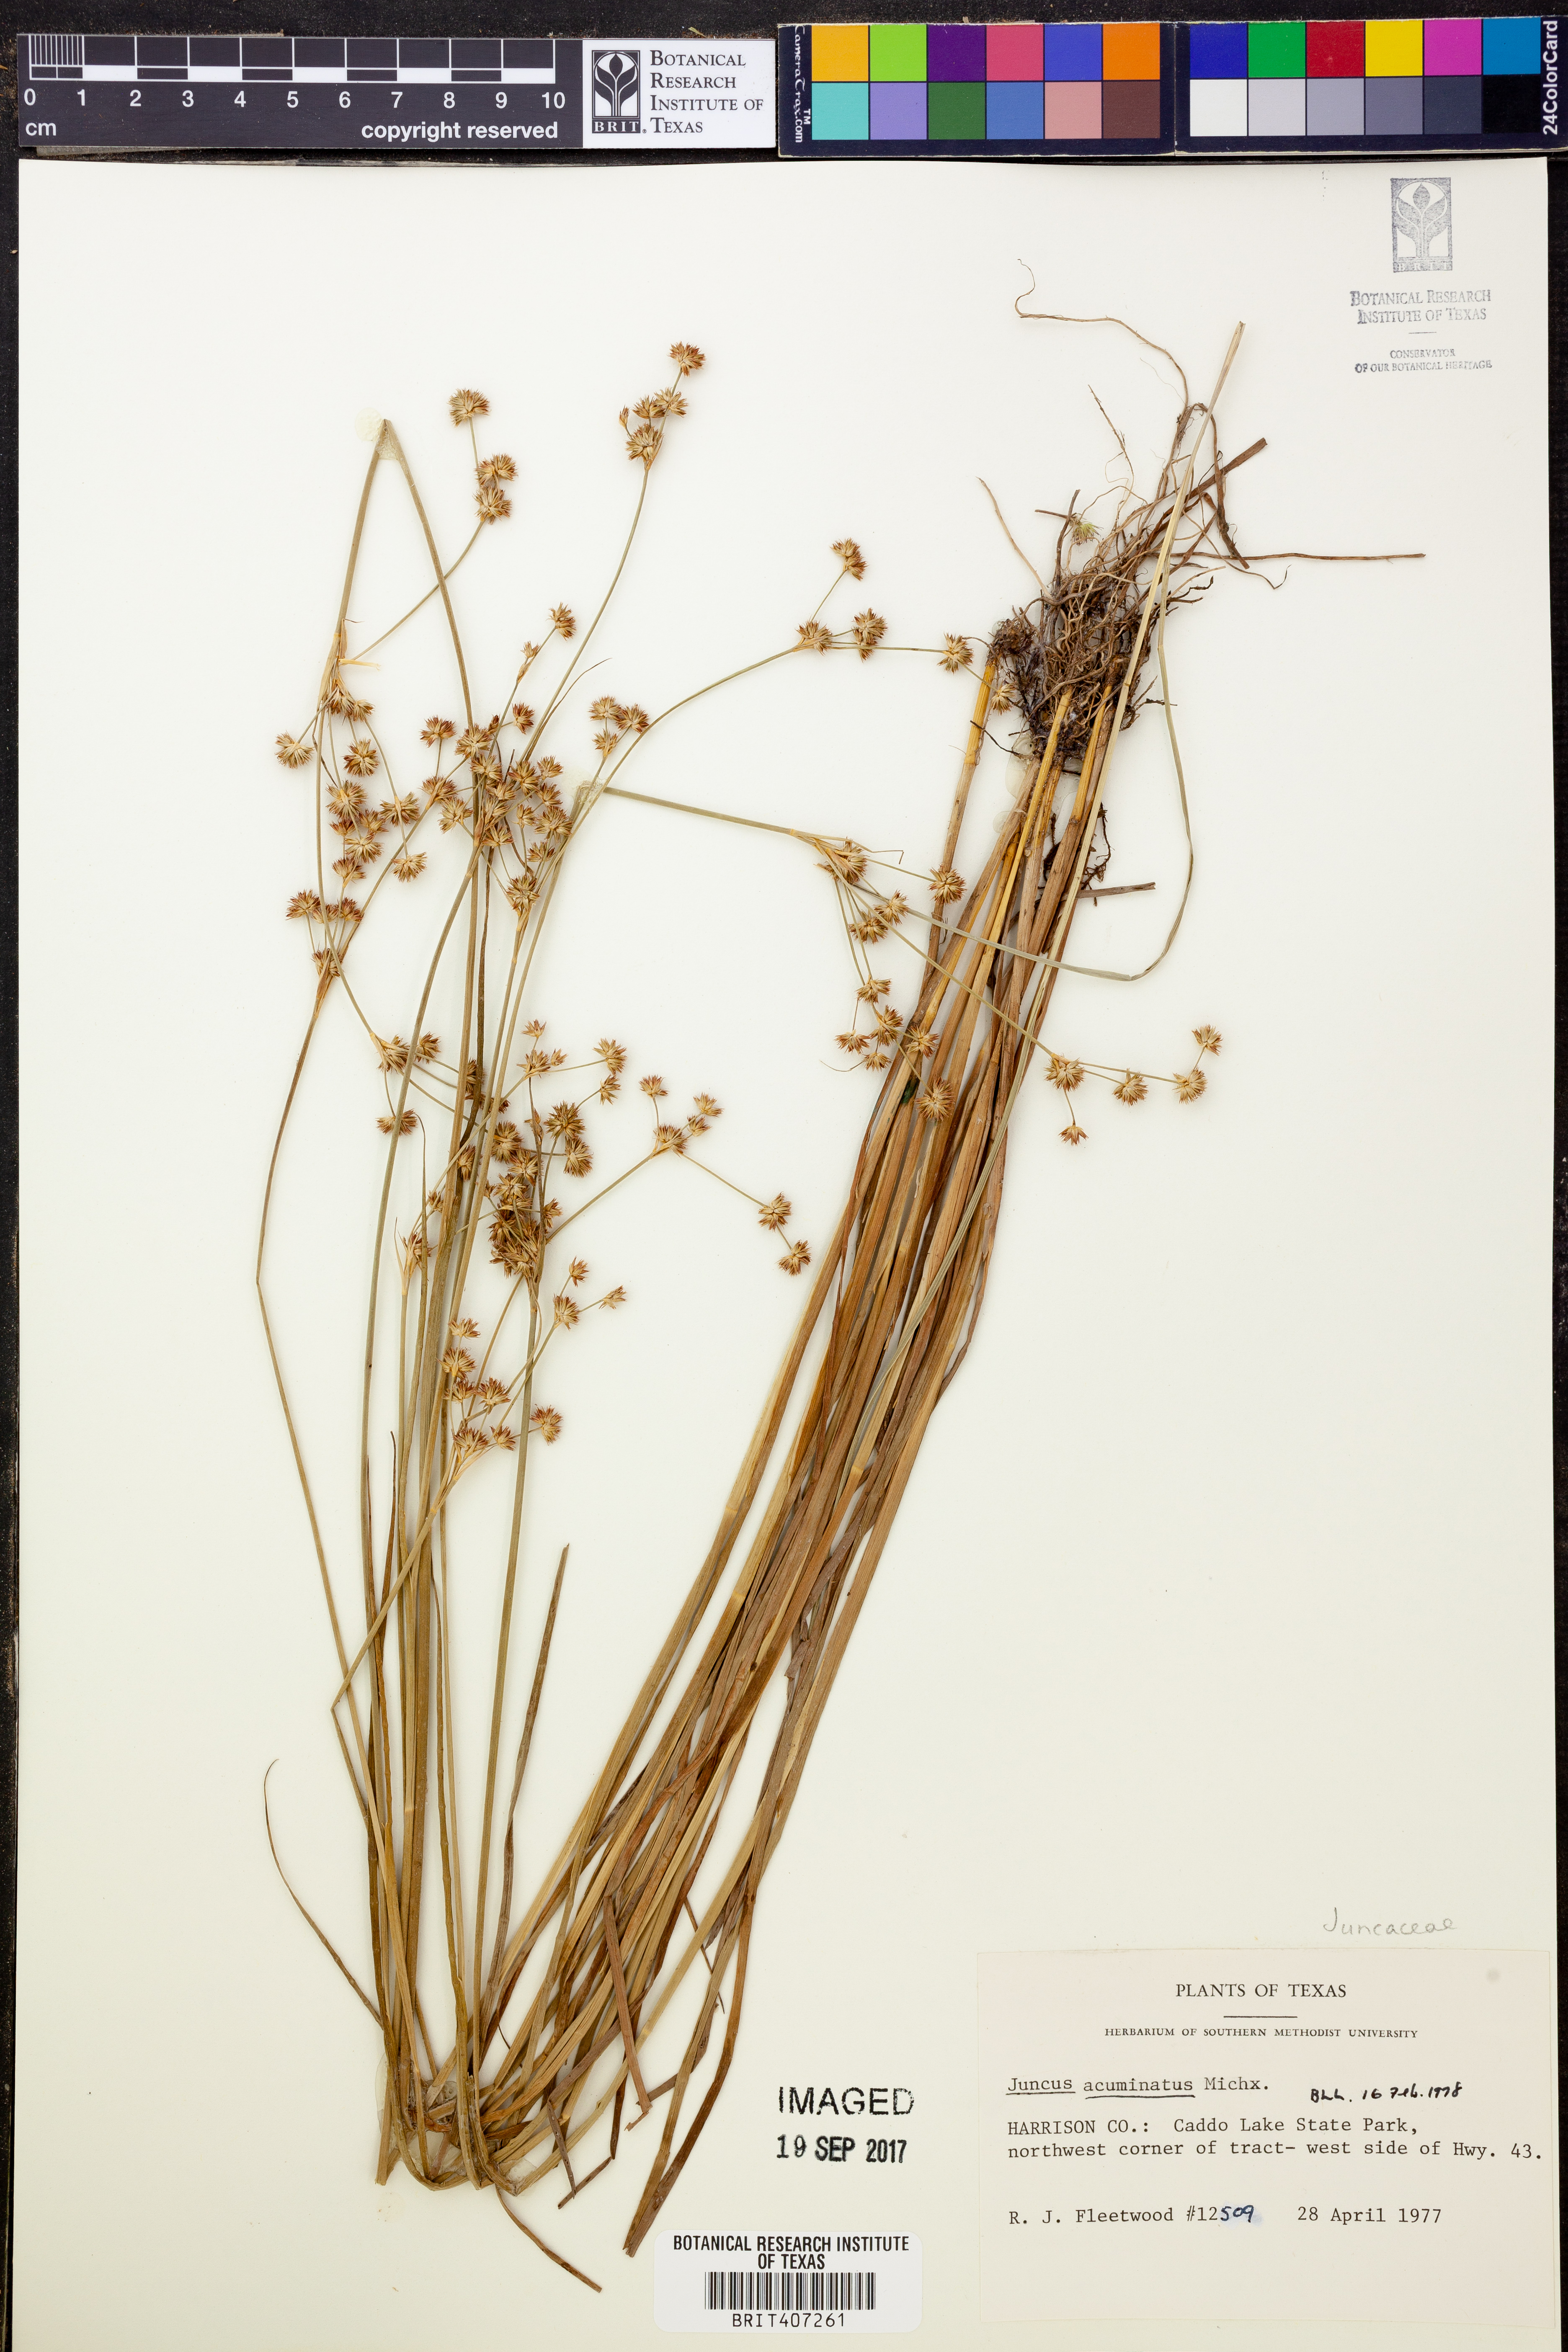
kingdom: Plantae
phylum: Tracheophyta
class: Liliopsida
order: Poales
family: Juncaceae
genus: Juncus
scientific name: Juncus acuminatus
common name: Knotty-leaved rush
